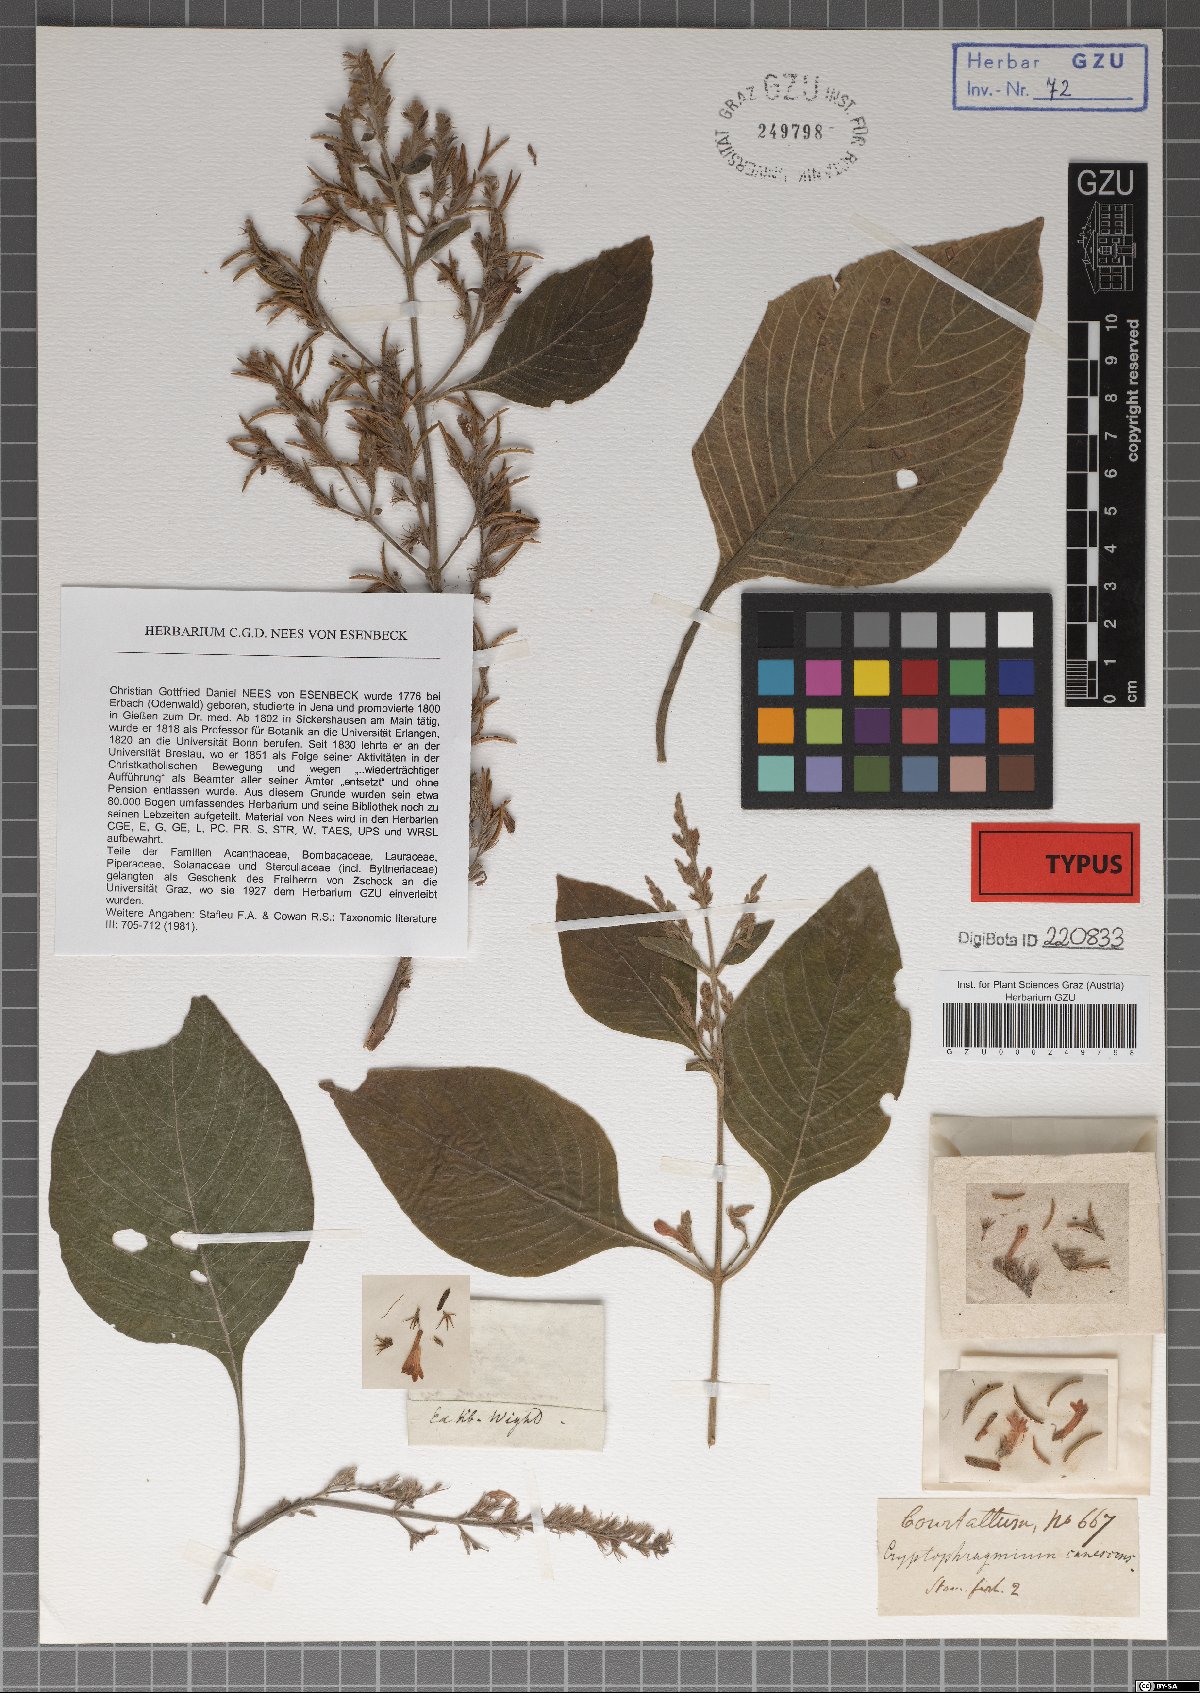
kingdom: Plantae
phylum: Tracheophyta
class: Magnoliopsida
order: Lamiales
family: Acanthaceae
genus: Gymnostachyum
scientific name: Gymnostachyum pubescens
